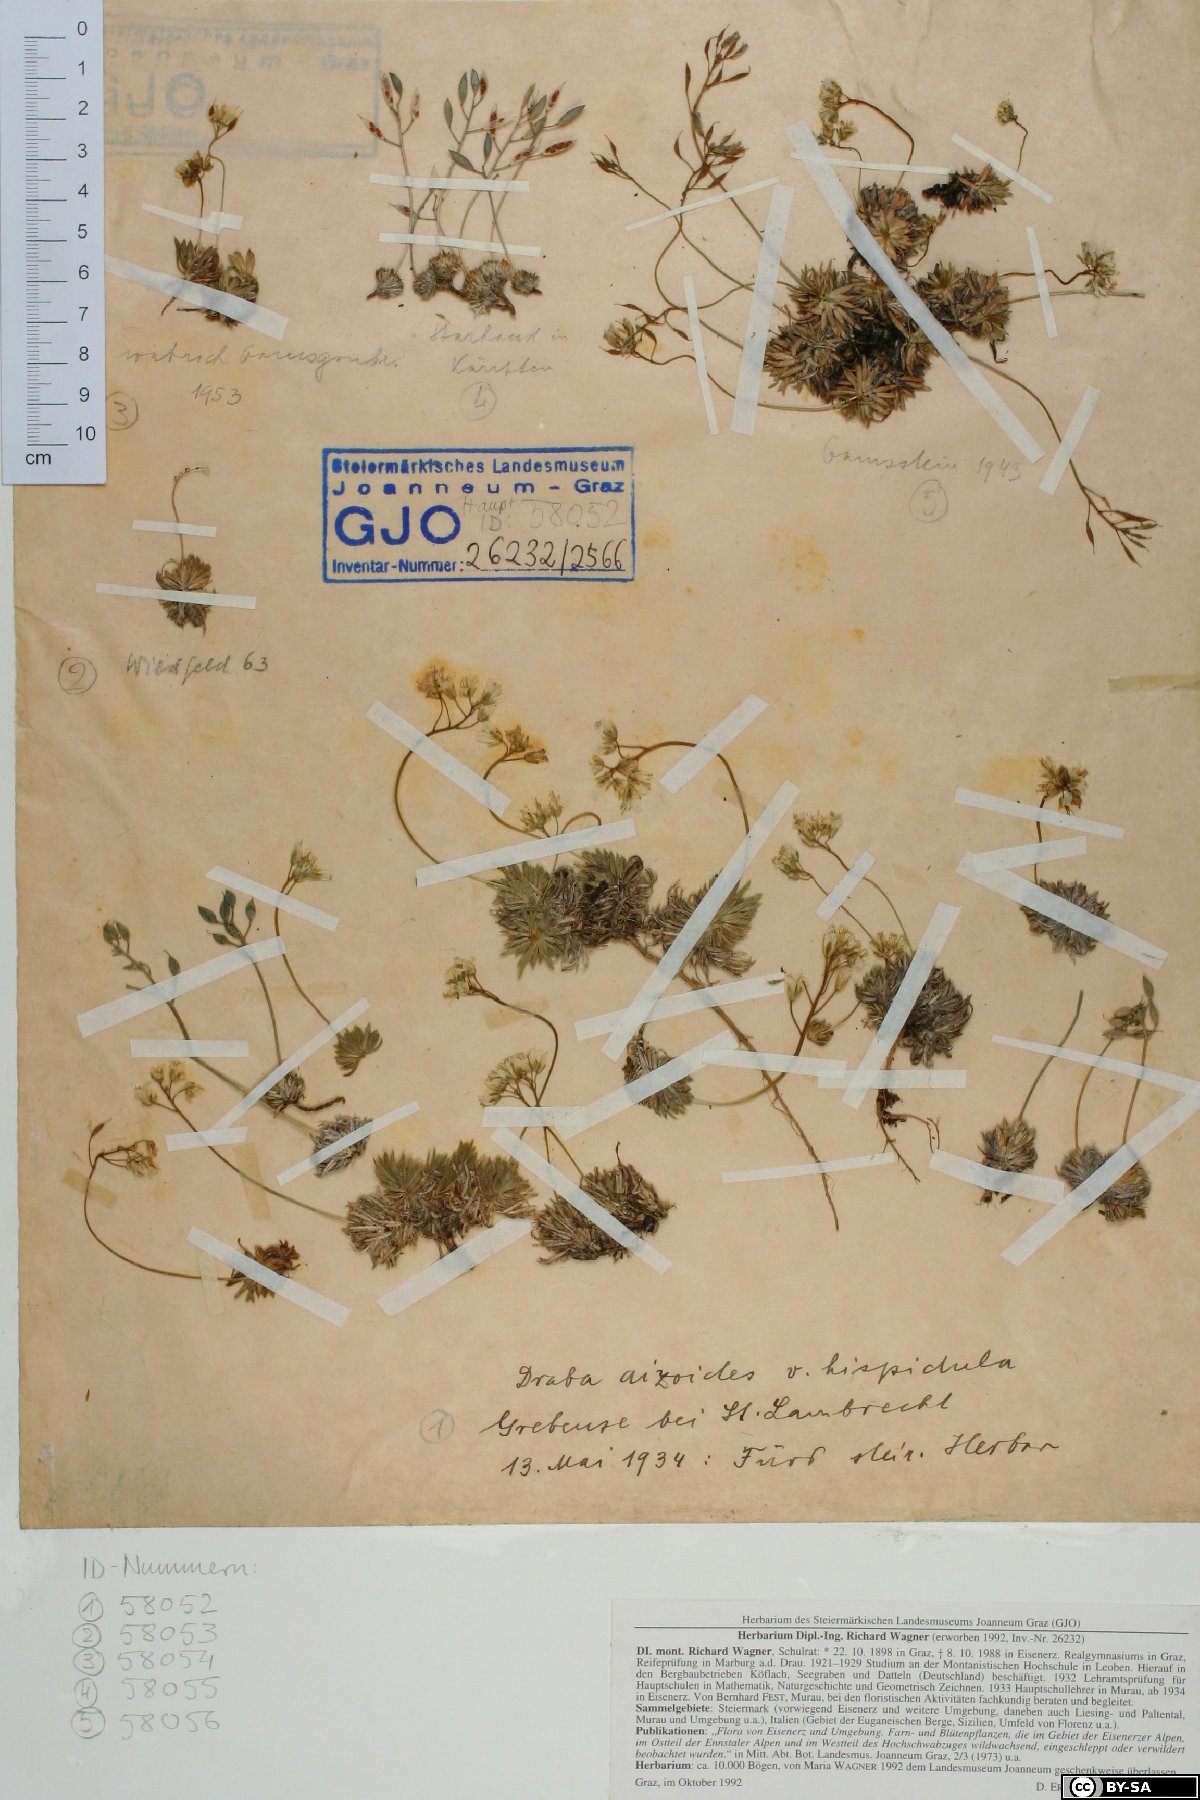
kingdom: Plantae
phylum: Tracheophyta
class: Magnoliopsida
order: Brassicales
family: Brassicaceae
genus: Draba
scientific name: Draba aizoides
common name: Yellow whitlowgrass
